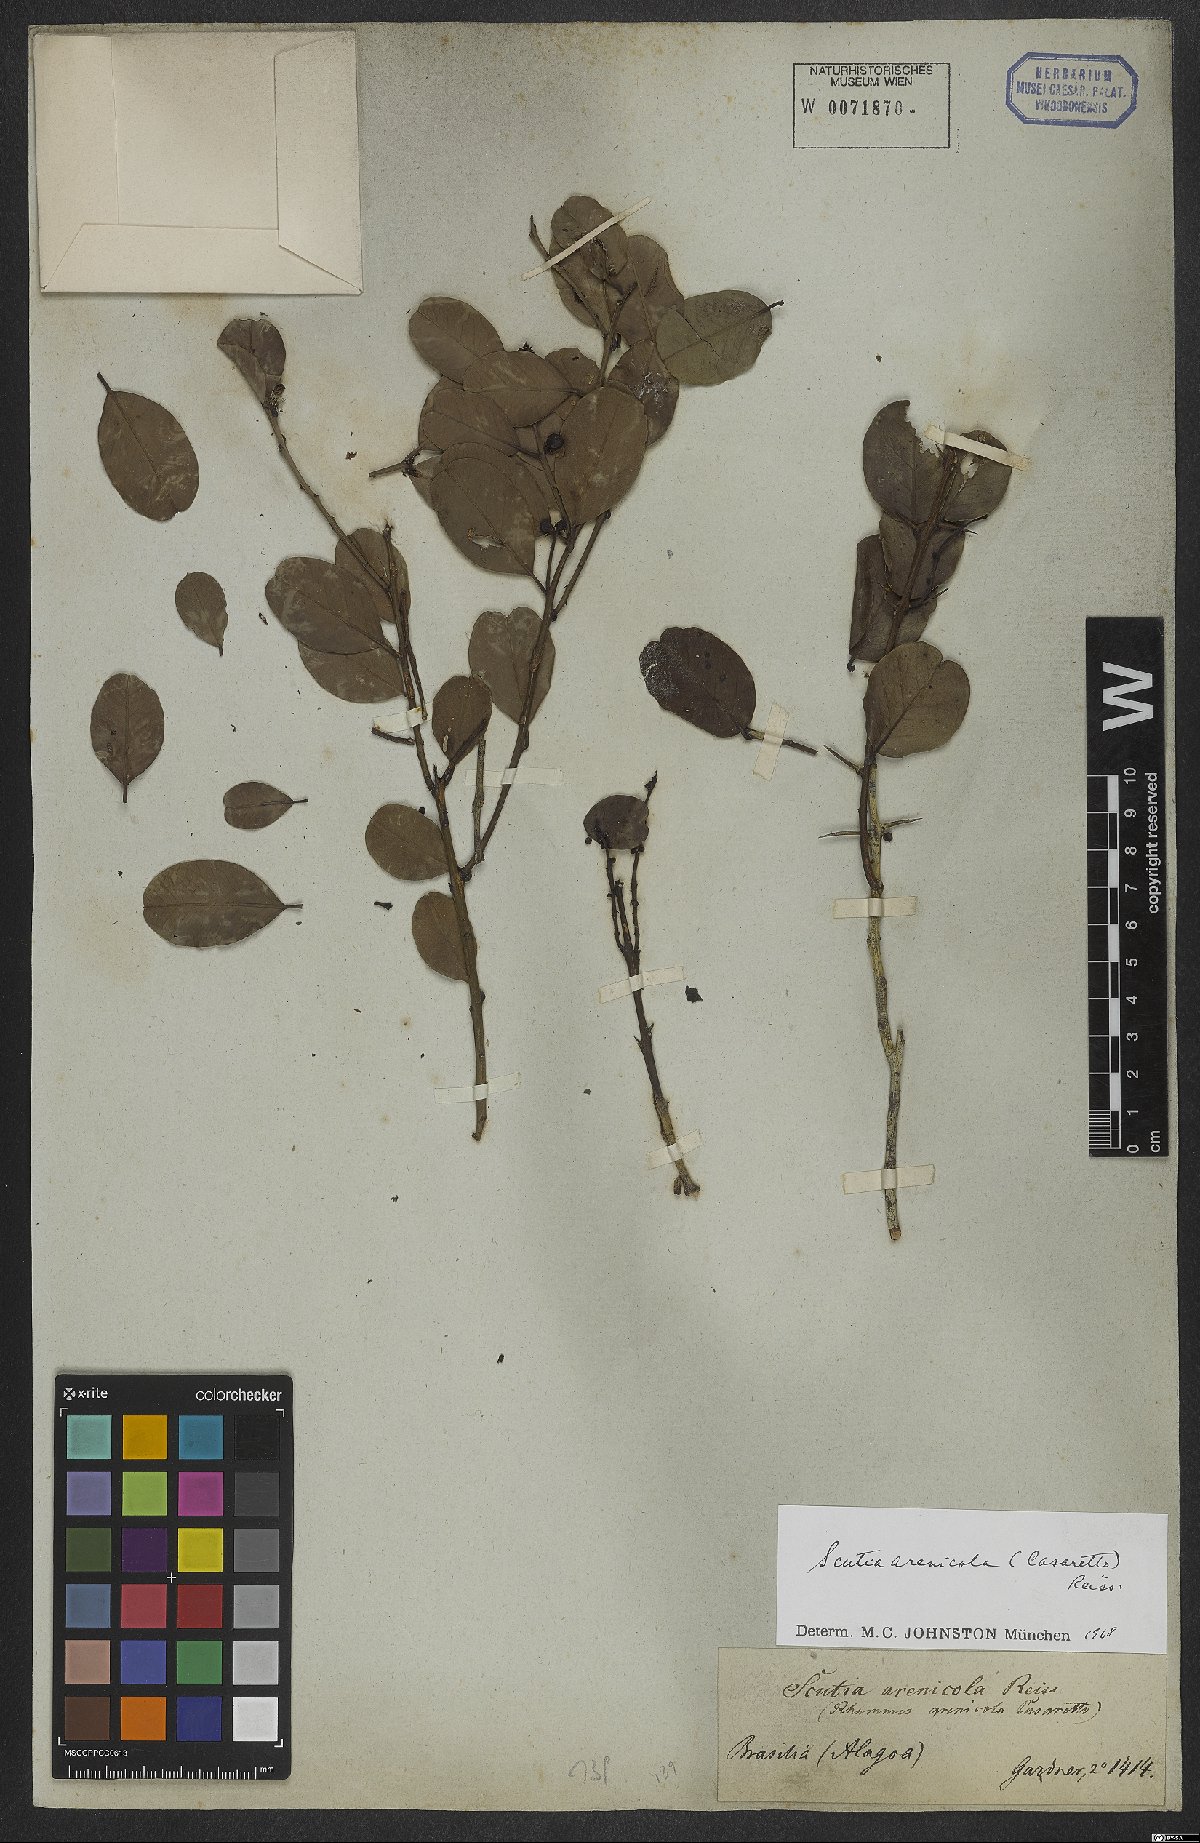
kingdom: Plantae
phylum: Tracheophyta
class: Magnoliopsida
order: Rosales
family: Rhamnaceae
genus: Scutia
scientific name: Scutia arenicola
